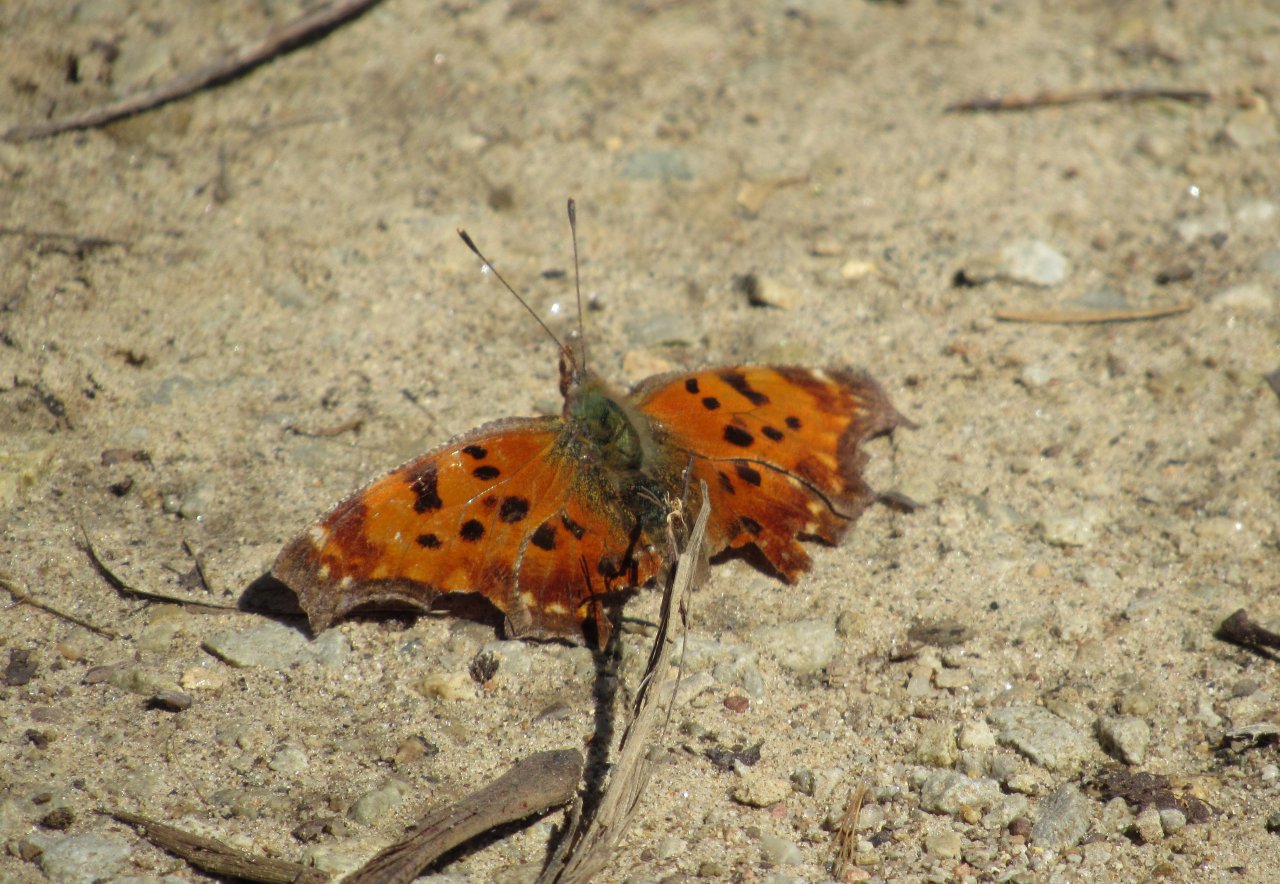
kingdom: Animalia
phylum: Arthropoda
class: Insecta
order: Lepidoptera
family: Nymphalidae
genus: Polygonia
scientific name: Polygonia comma
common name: Eastern Comma
